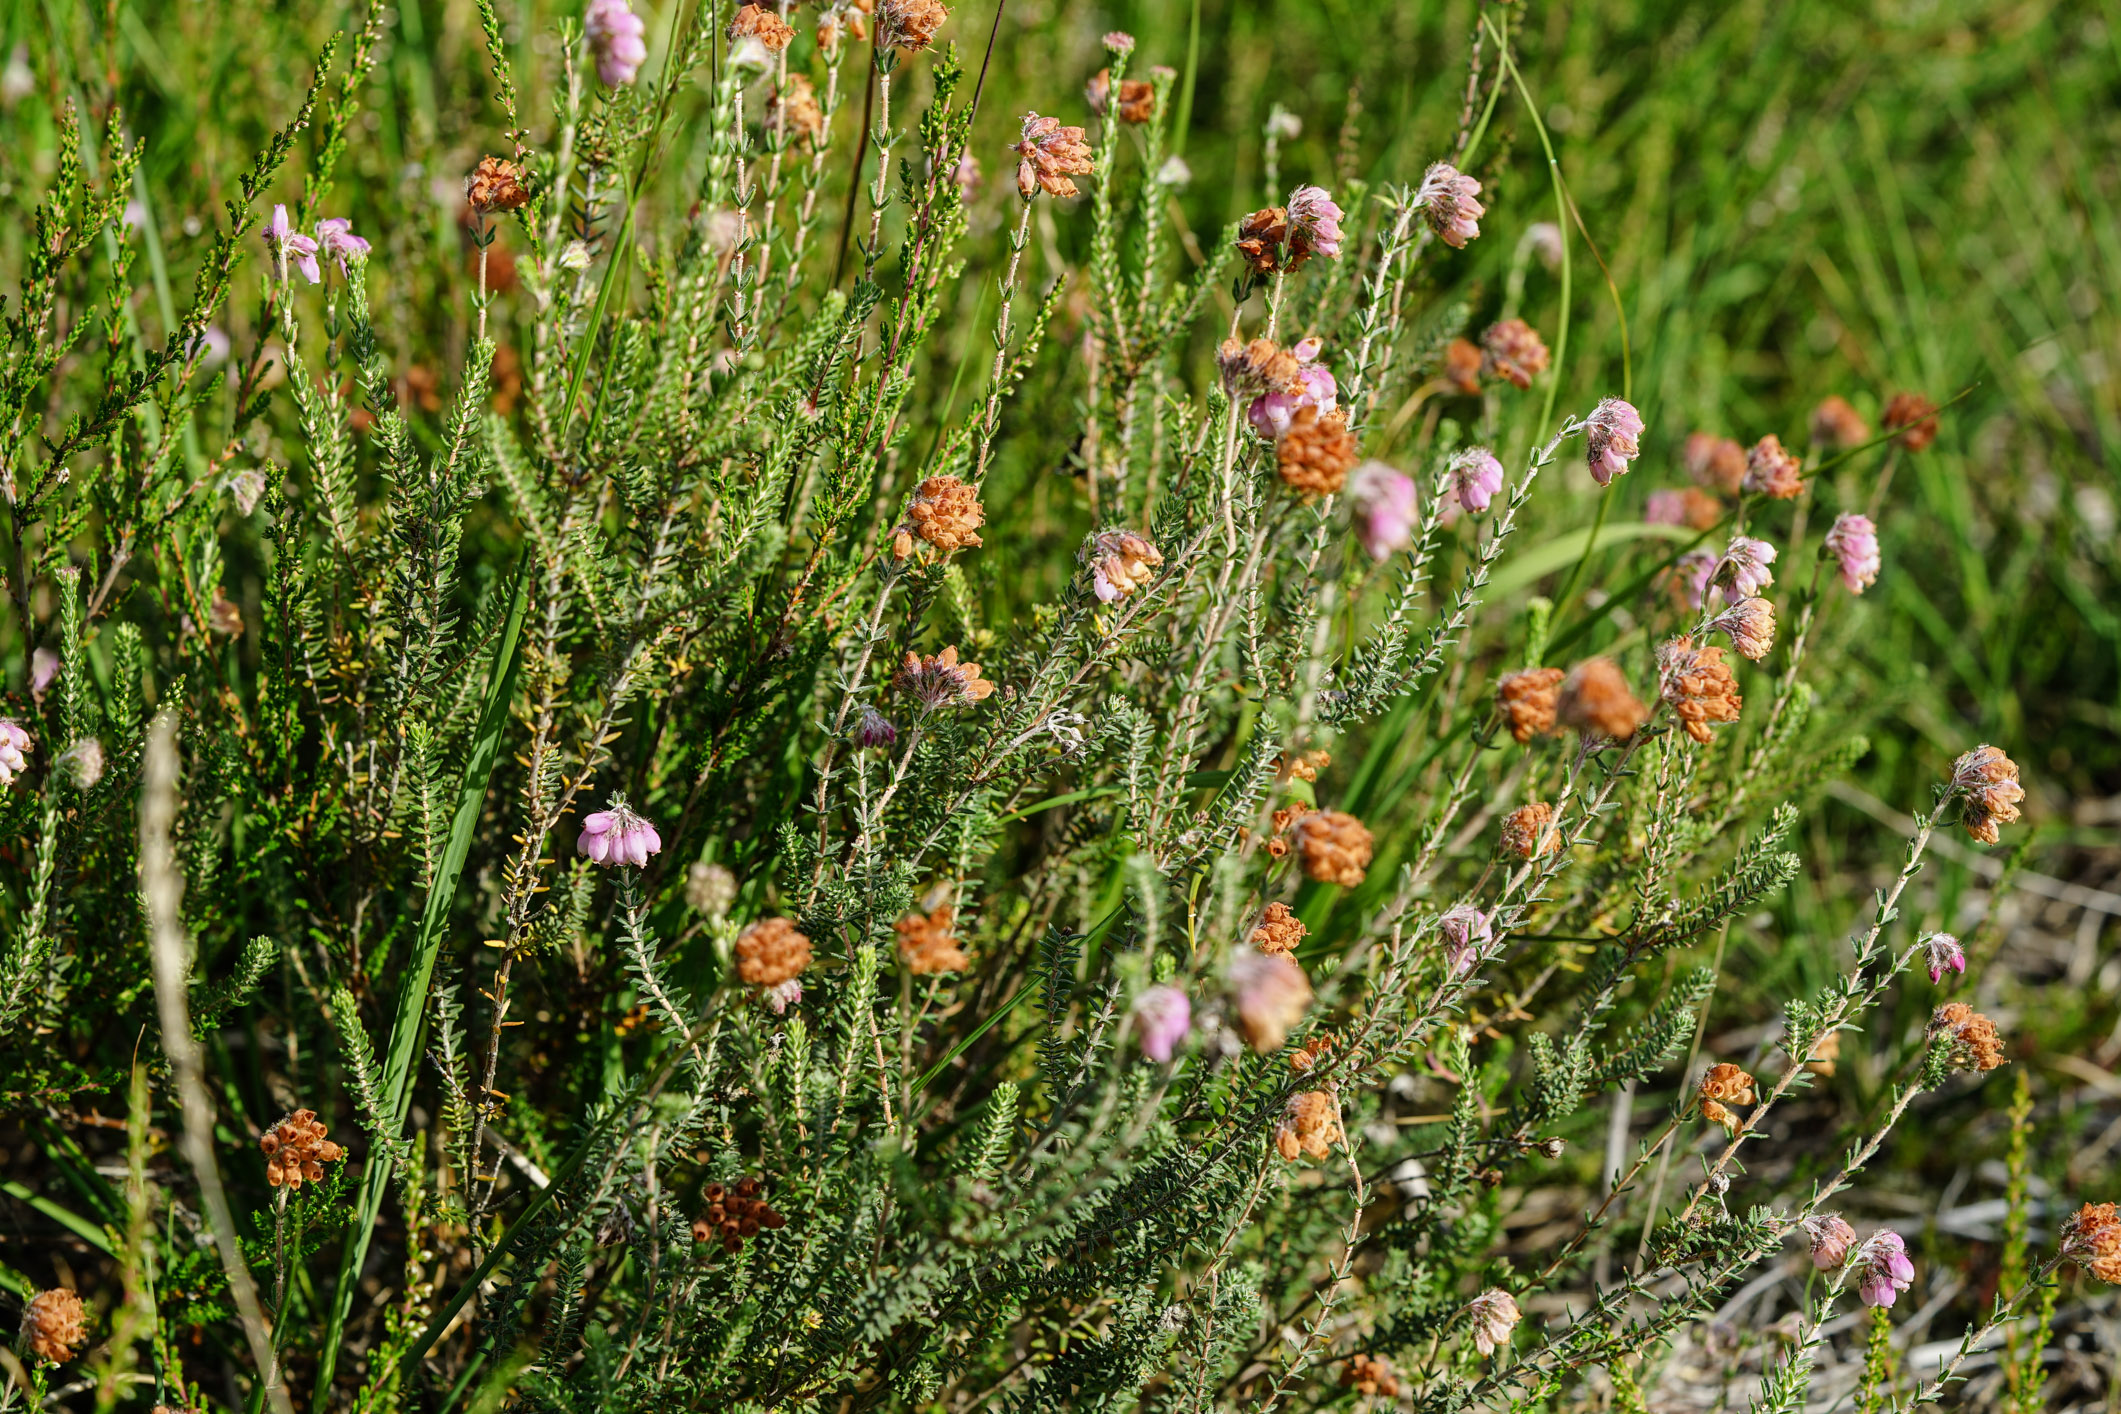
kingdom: Plantae
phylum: Tracheophyta
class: Magnoliopsida
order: Ericales
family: Ericaceae
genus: Erica
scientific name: Erica tetralix
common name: Cross-leaved heath
